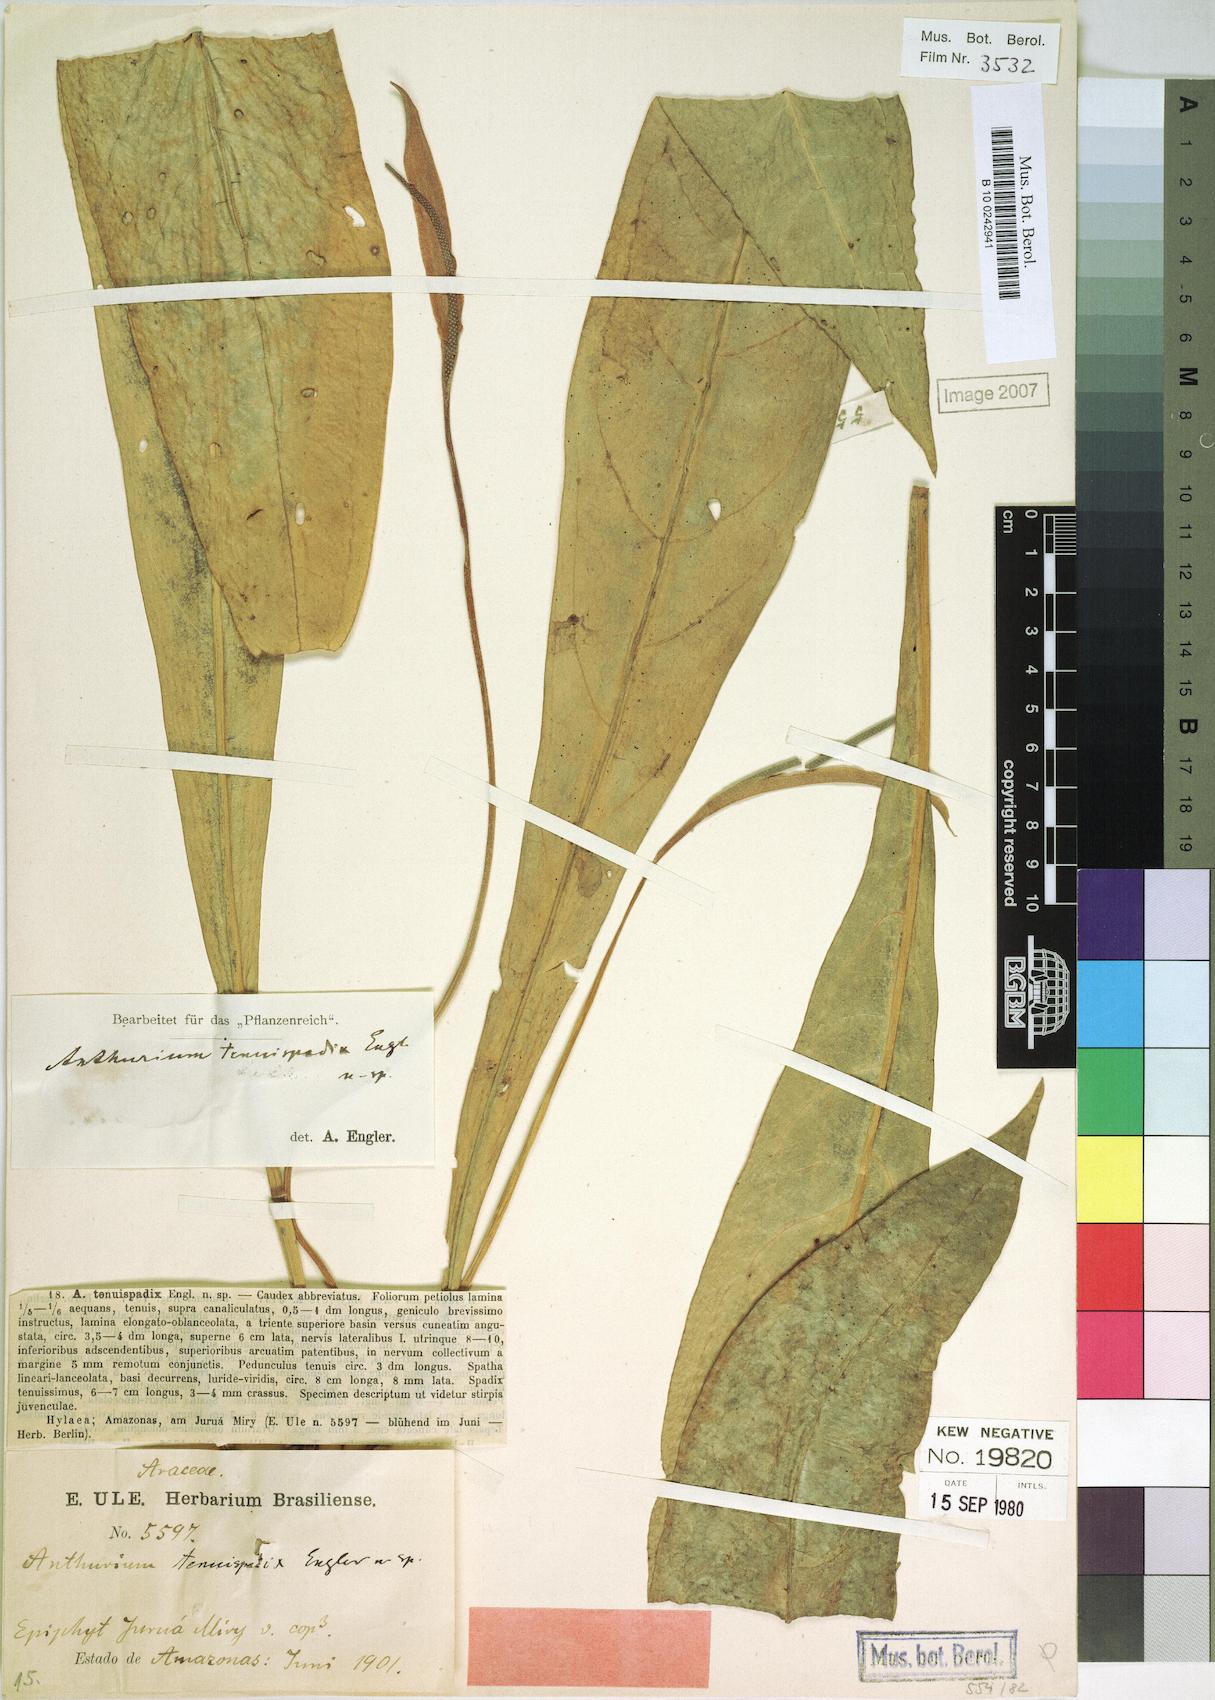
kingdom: Plantae
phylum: Tracheophyta
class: Liliopsida
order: Alismatales
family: Araceae
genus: Anthurium
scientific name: Anthurium uleanum
